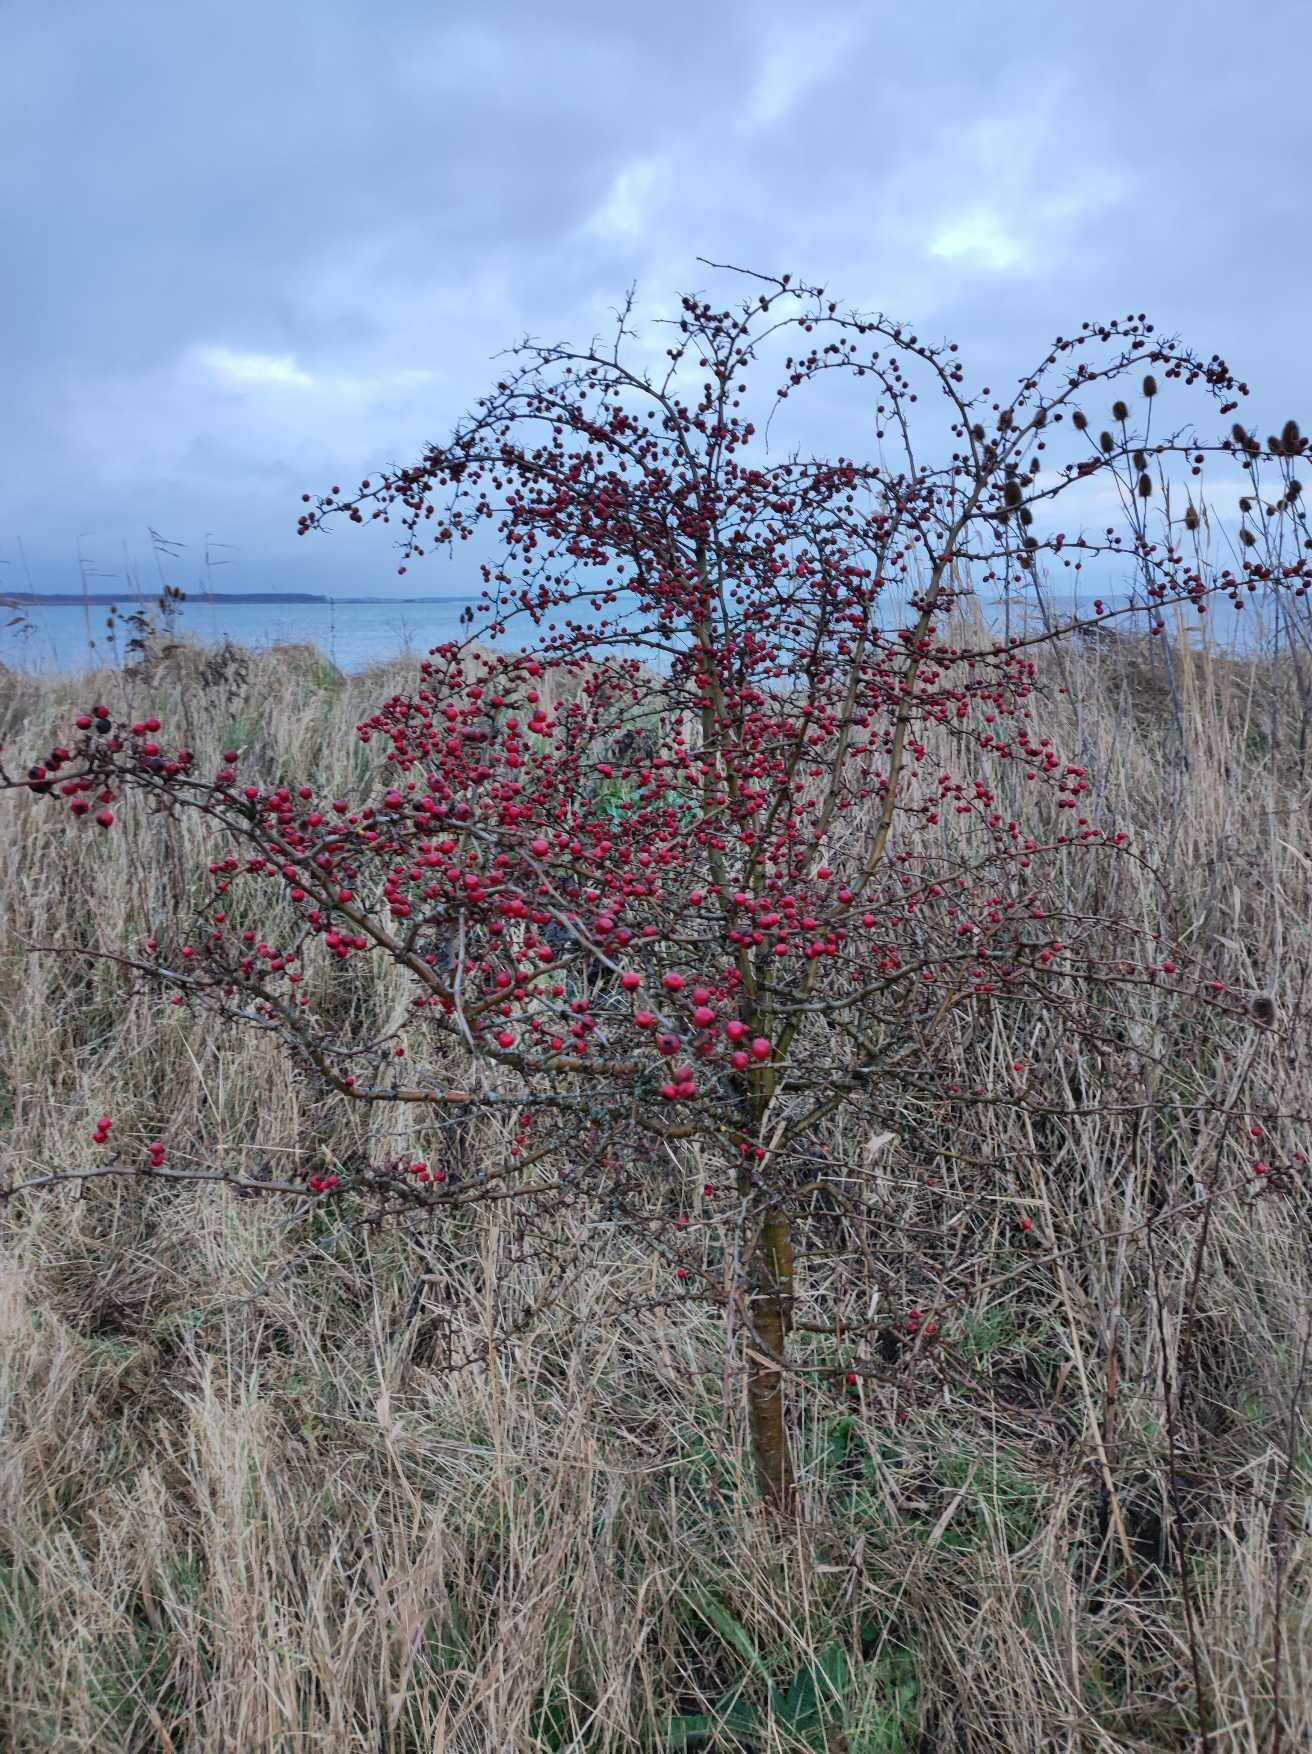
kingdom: Plantae
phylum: Tracheophyta
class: Magnoliopsida
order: Rosales
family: Rosaceae
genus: Crataegus
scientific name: Crataegus monogyna
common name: Engriflet hvidtjørn
